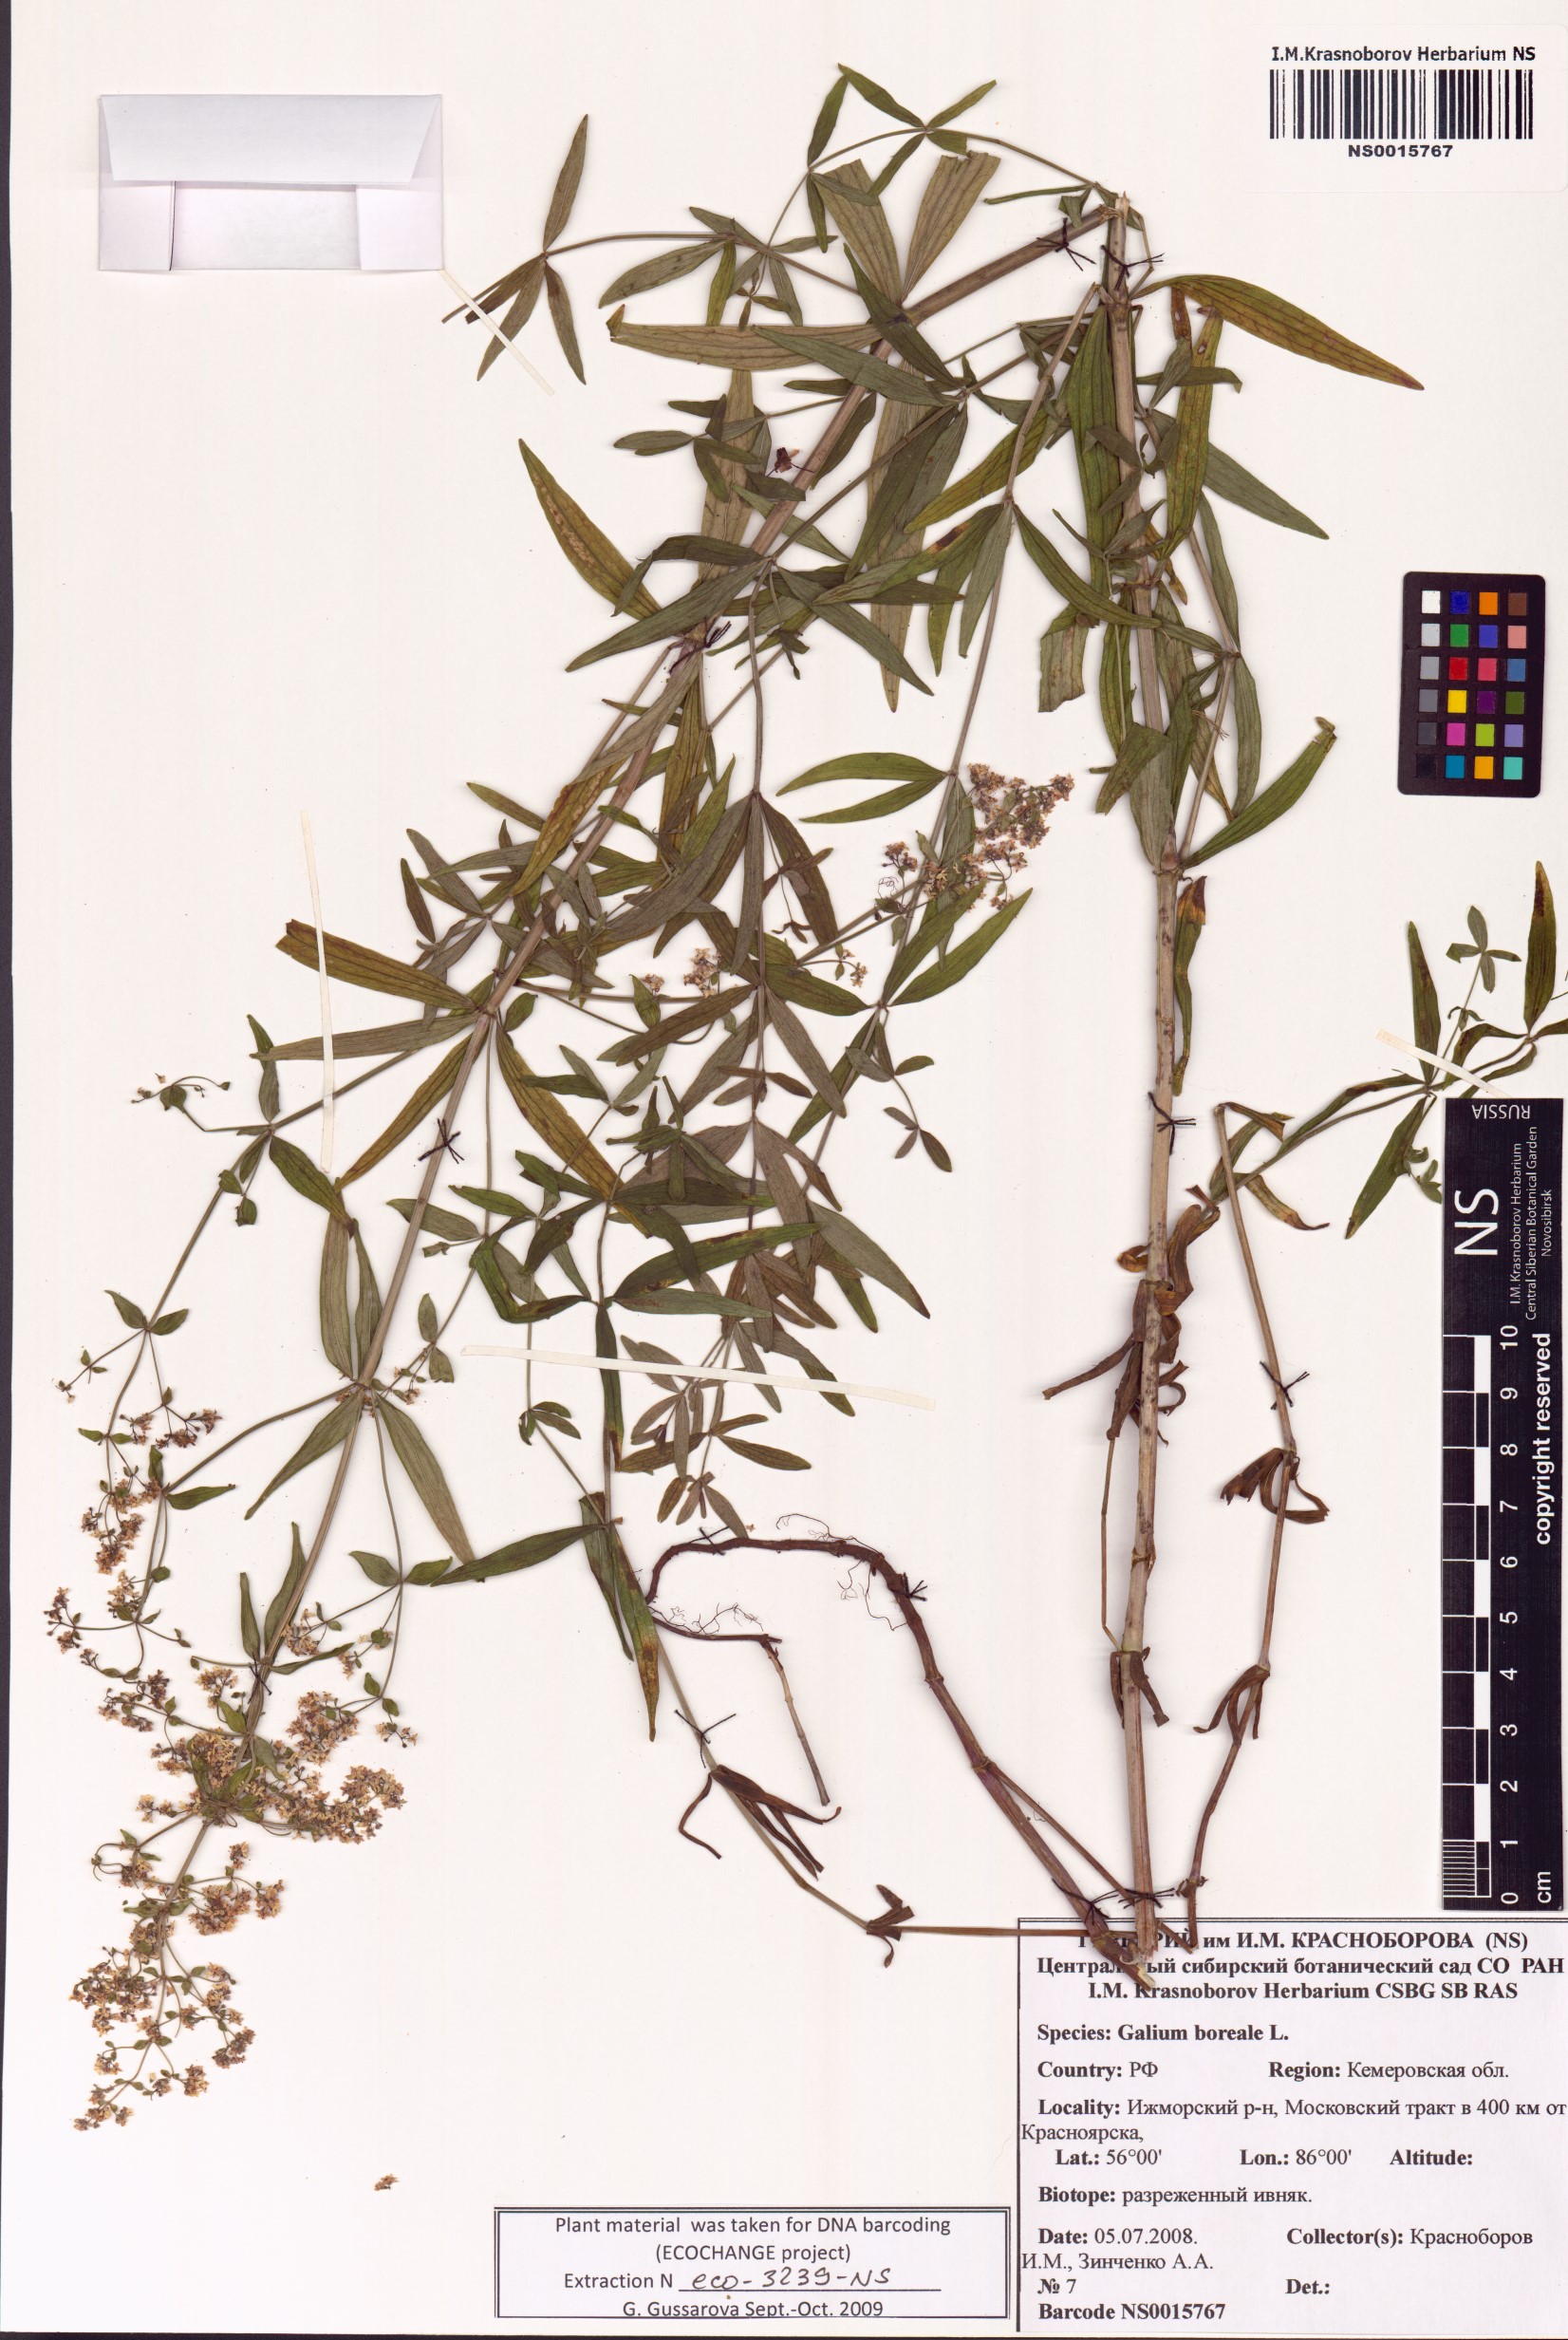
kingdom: Plantae
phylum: Tracheophyta
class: Magnoliopsida
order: Gentianales
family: Rubiaceae
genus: Galium
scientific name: Galium boreale
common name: Northern bedstraw
